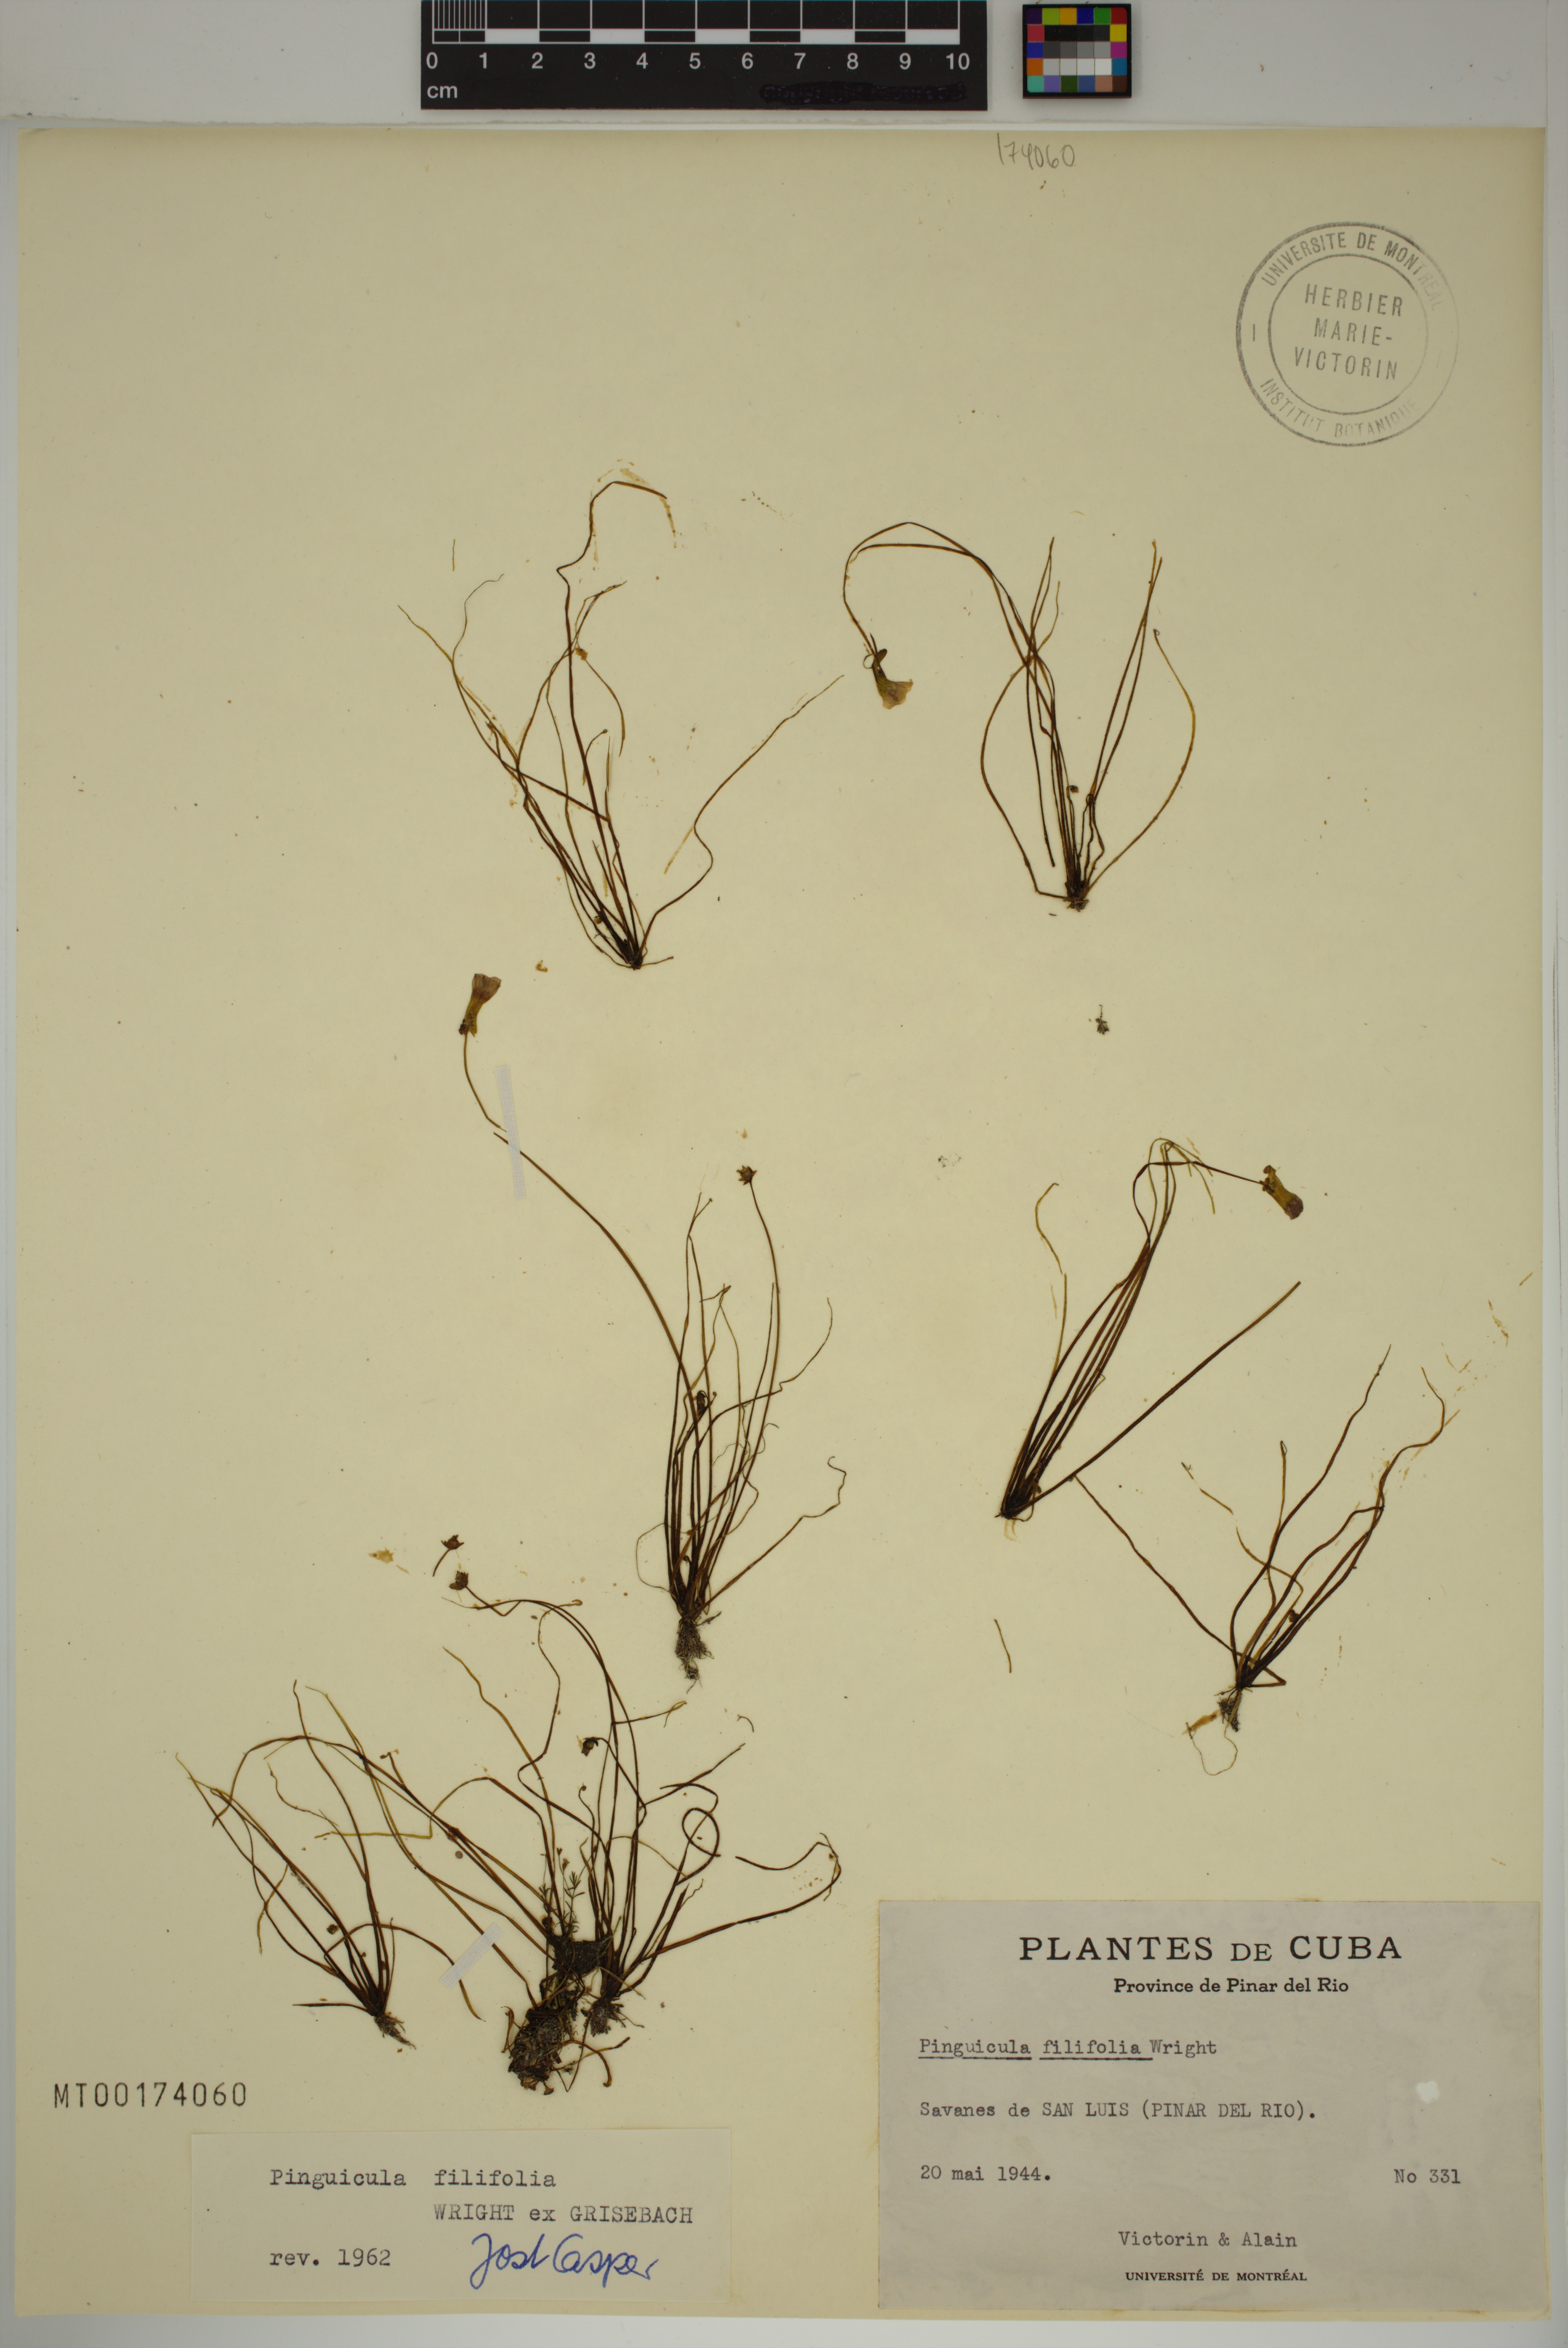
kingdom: Plantae
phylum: Tracheophyta
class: Magnoliopsida
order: Lamiales
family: Lentibulariaceae
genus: Pinguicula
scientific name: Pinguicula filifolia
